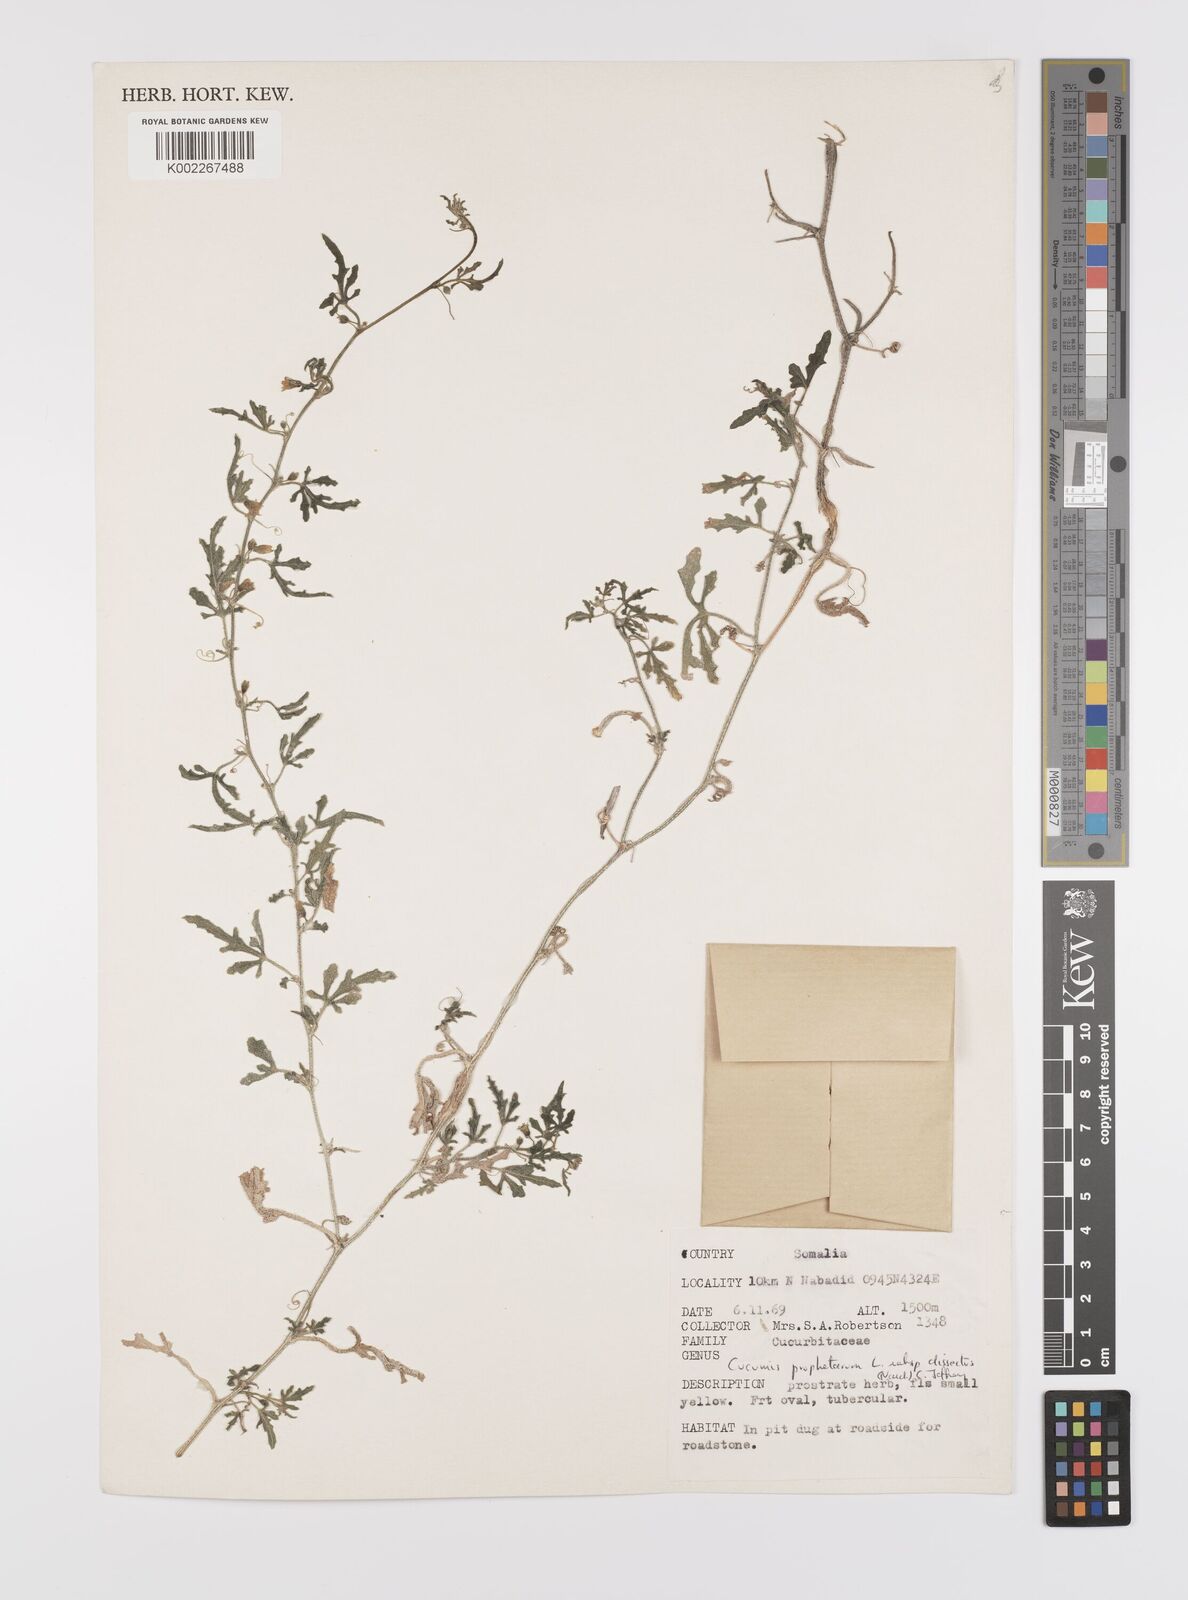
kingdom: Plantae
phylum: Tracheophyta
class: Magnoliopsida
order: Cucurbitales
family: Cucurbitaceae
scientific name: Cucurbitaceae
